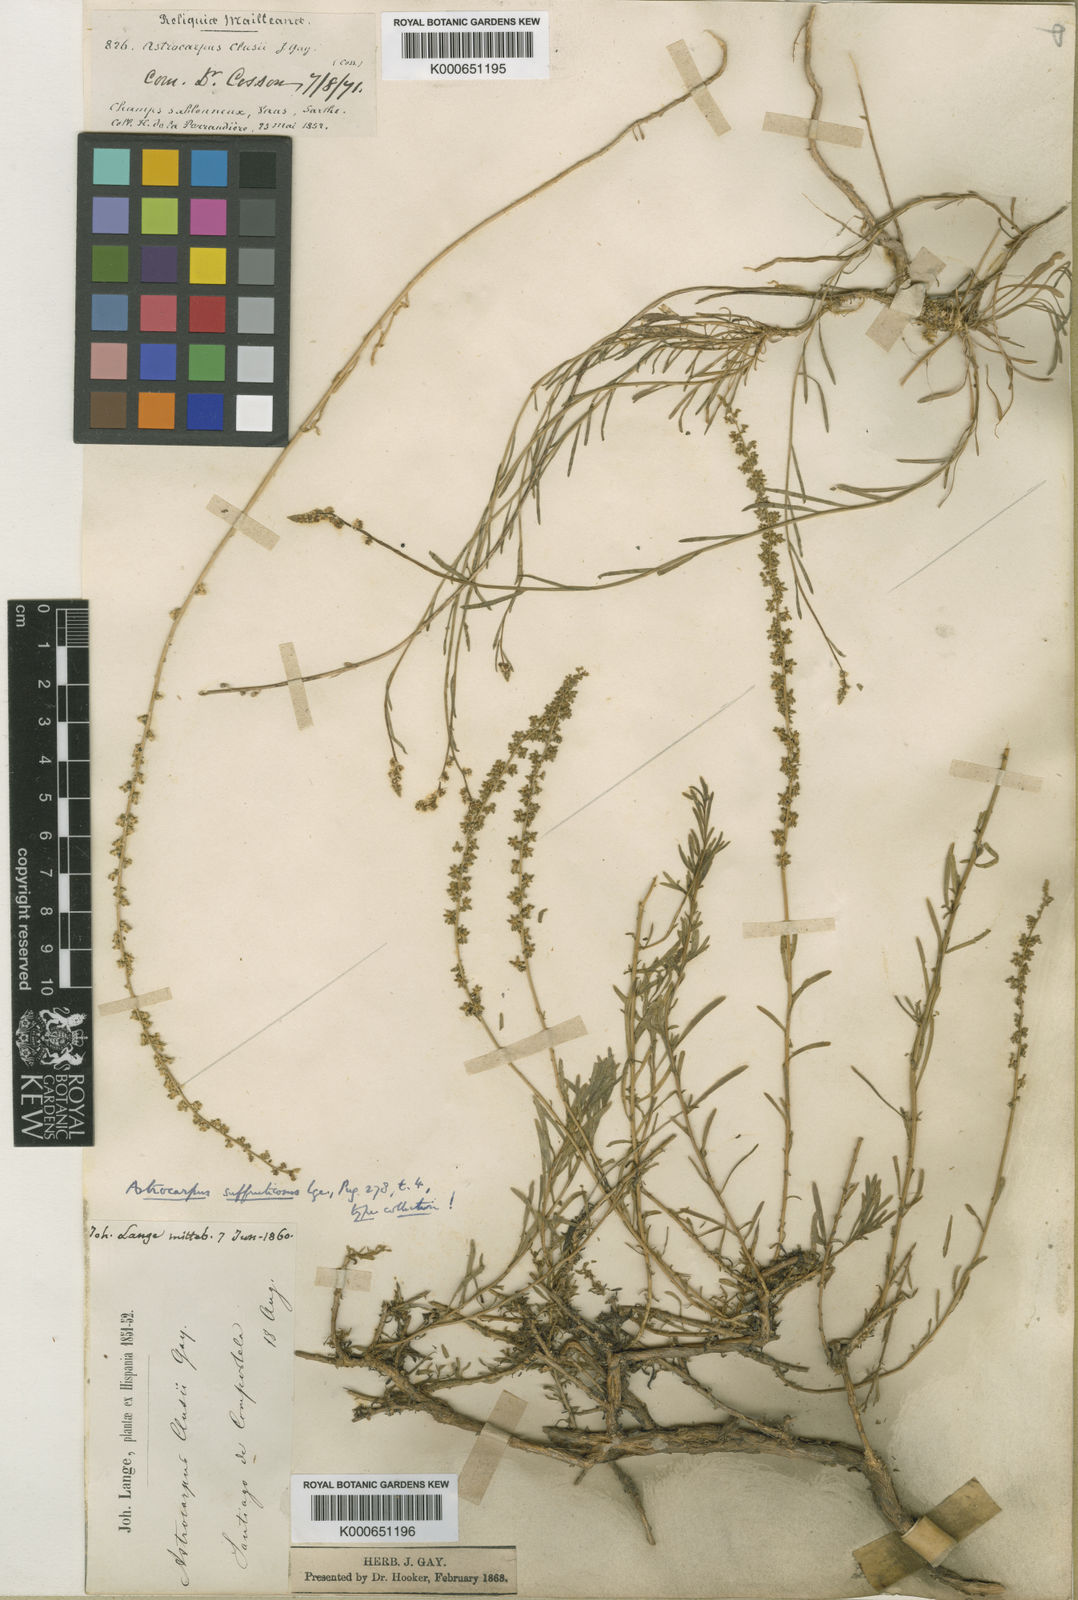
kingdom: Plantae
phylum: Tracheophyta
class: Magnoliopsida
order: Brassicales
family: Resedaceae
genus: Sesamoides
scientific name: Sesamoides interrupta
